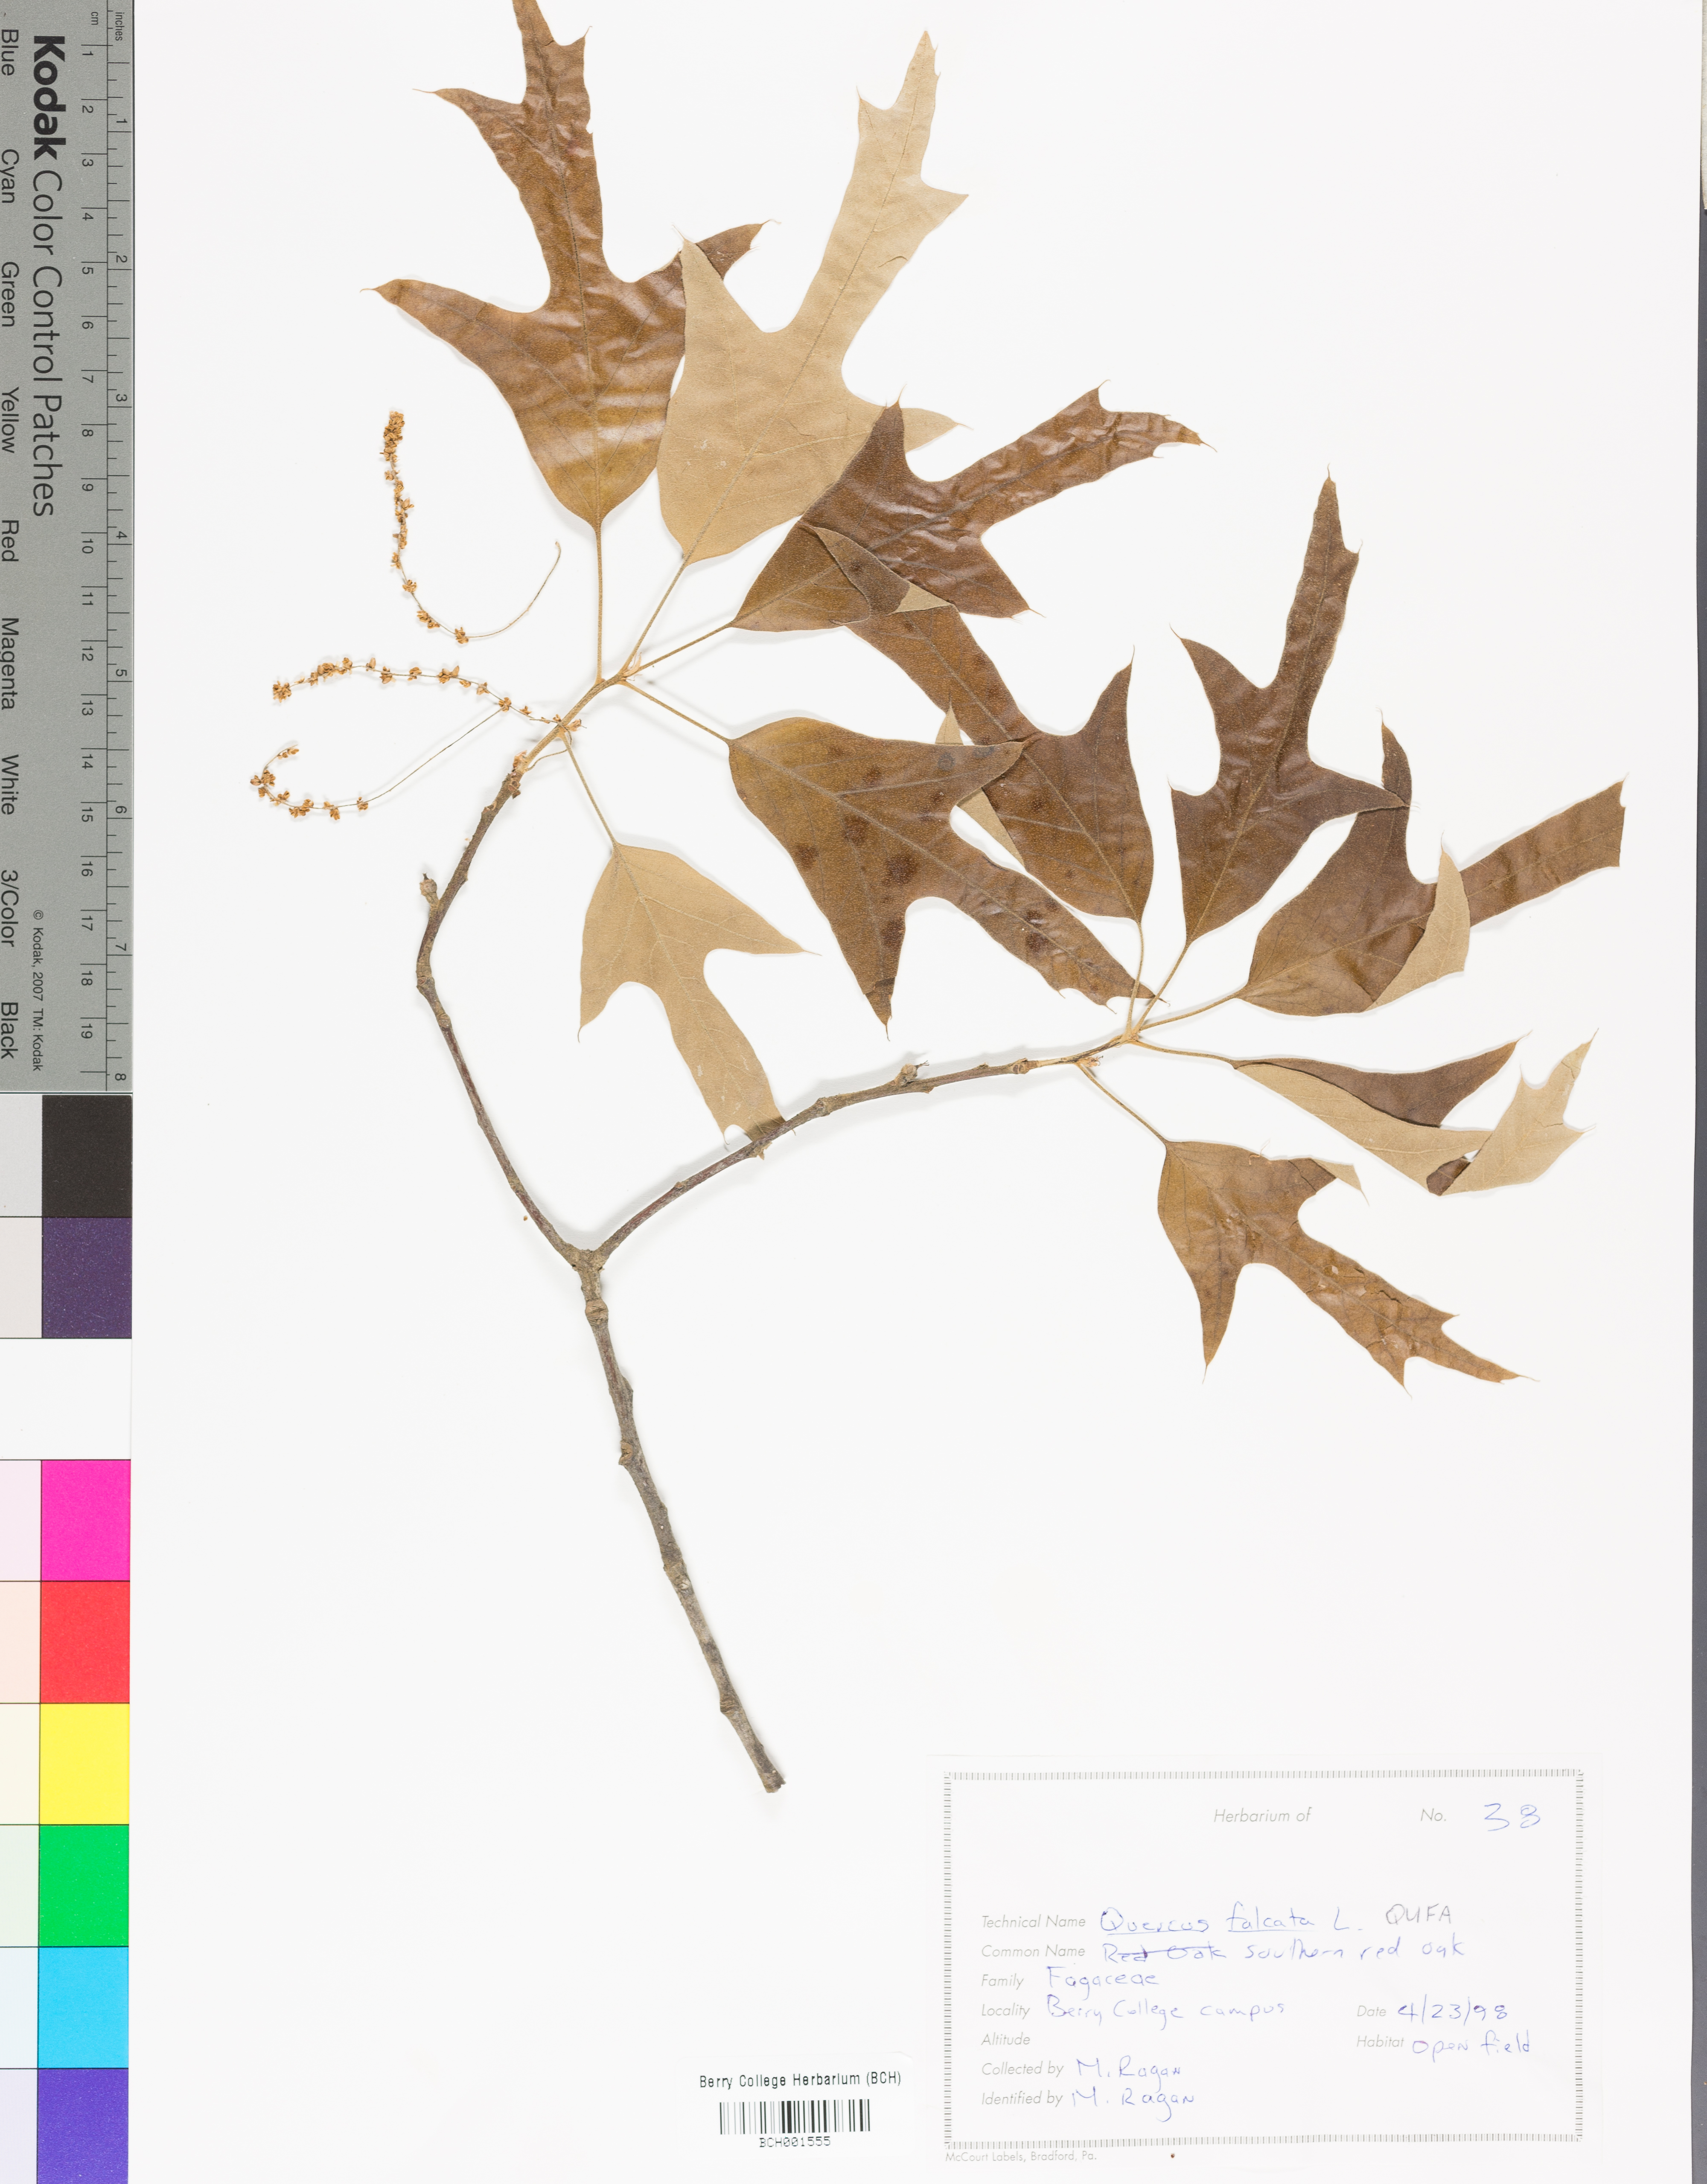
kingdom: Plantae
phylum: Tracheophyta
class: Magnoliopsida
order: Fagales
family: Fagaceae
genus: Quercus
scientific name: Quercus falcata
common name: Southern red oak
